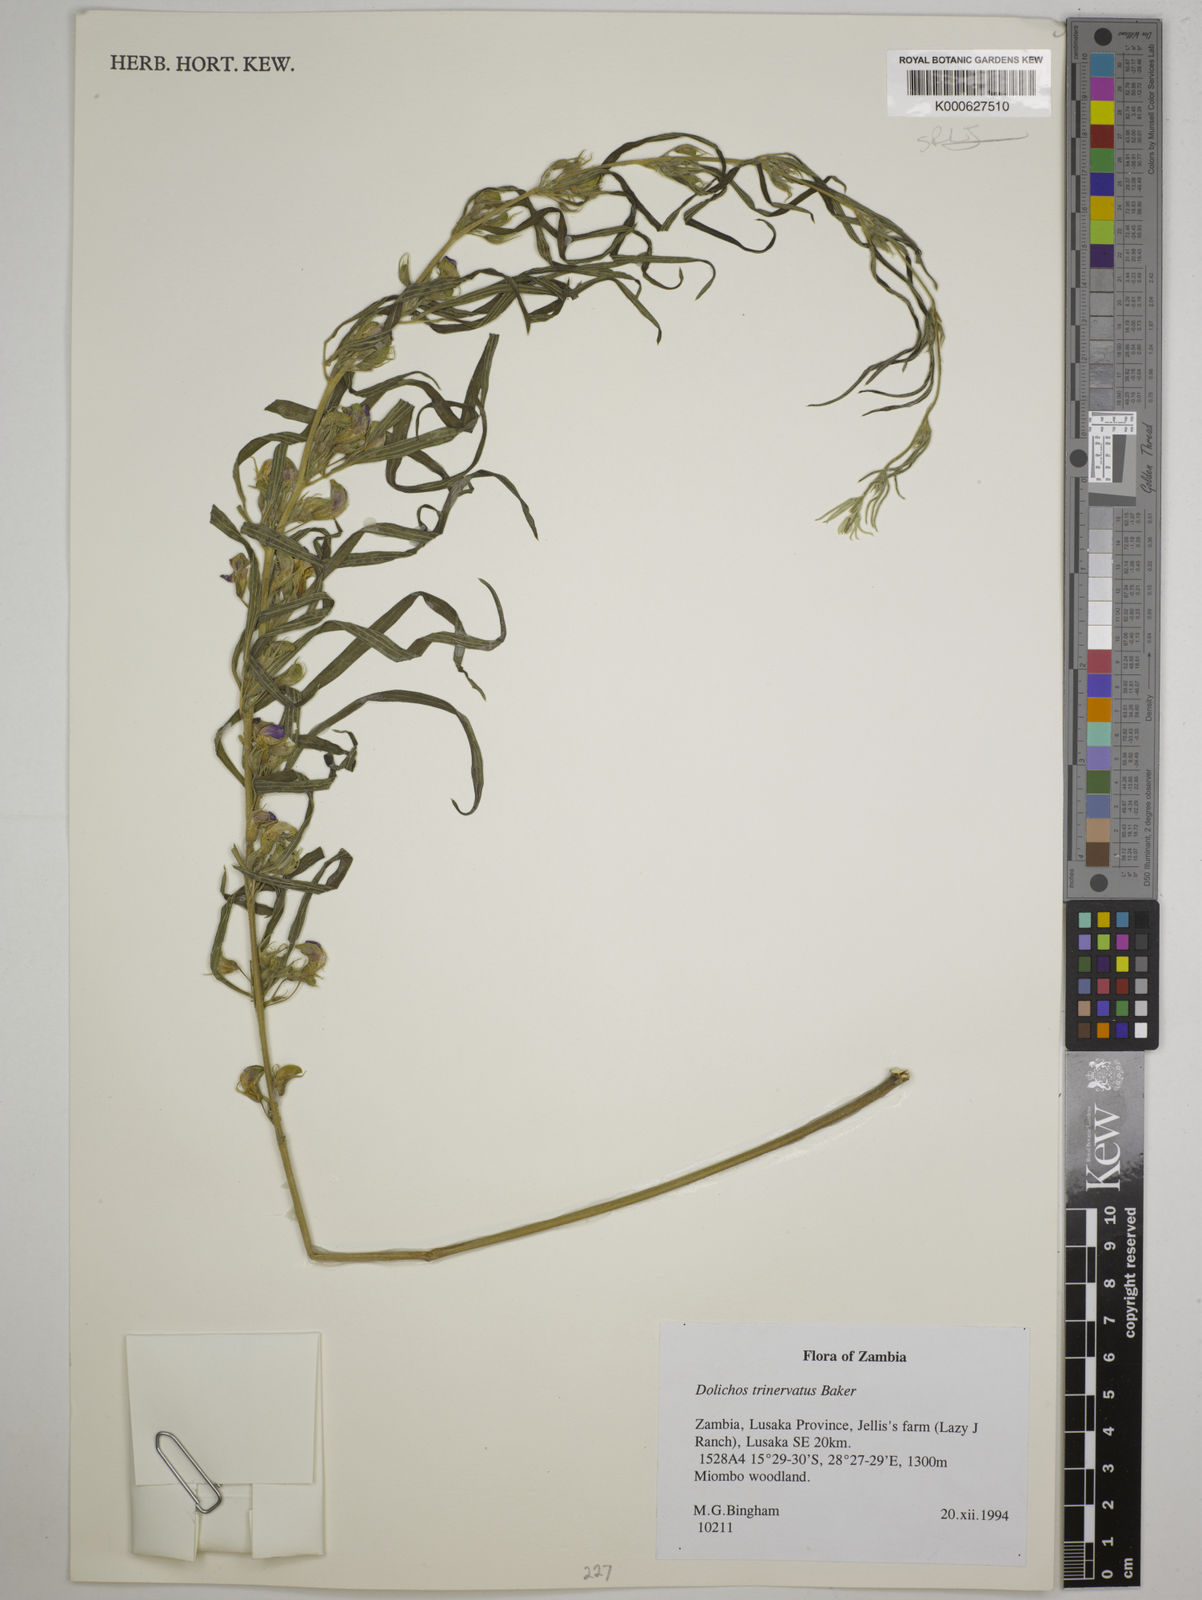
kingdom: Plantae
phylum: Tracheophyta
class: Magnoliopsida
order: Fabales
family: Fabaceae
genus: Dolichos
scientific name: Dolichos trinervatus
